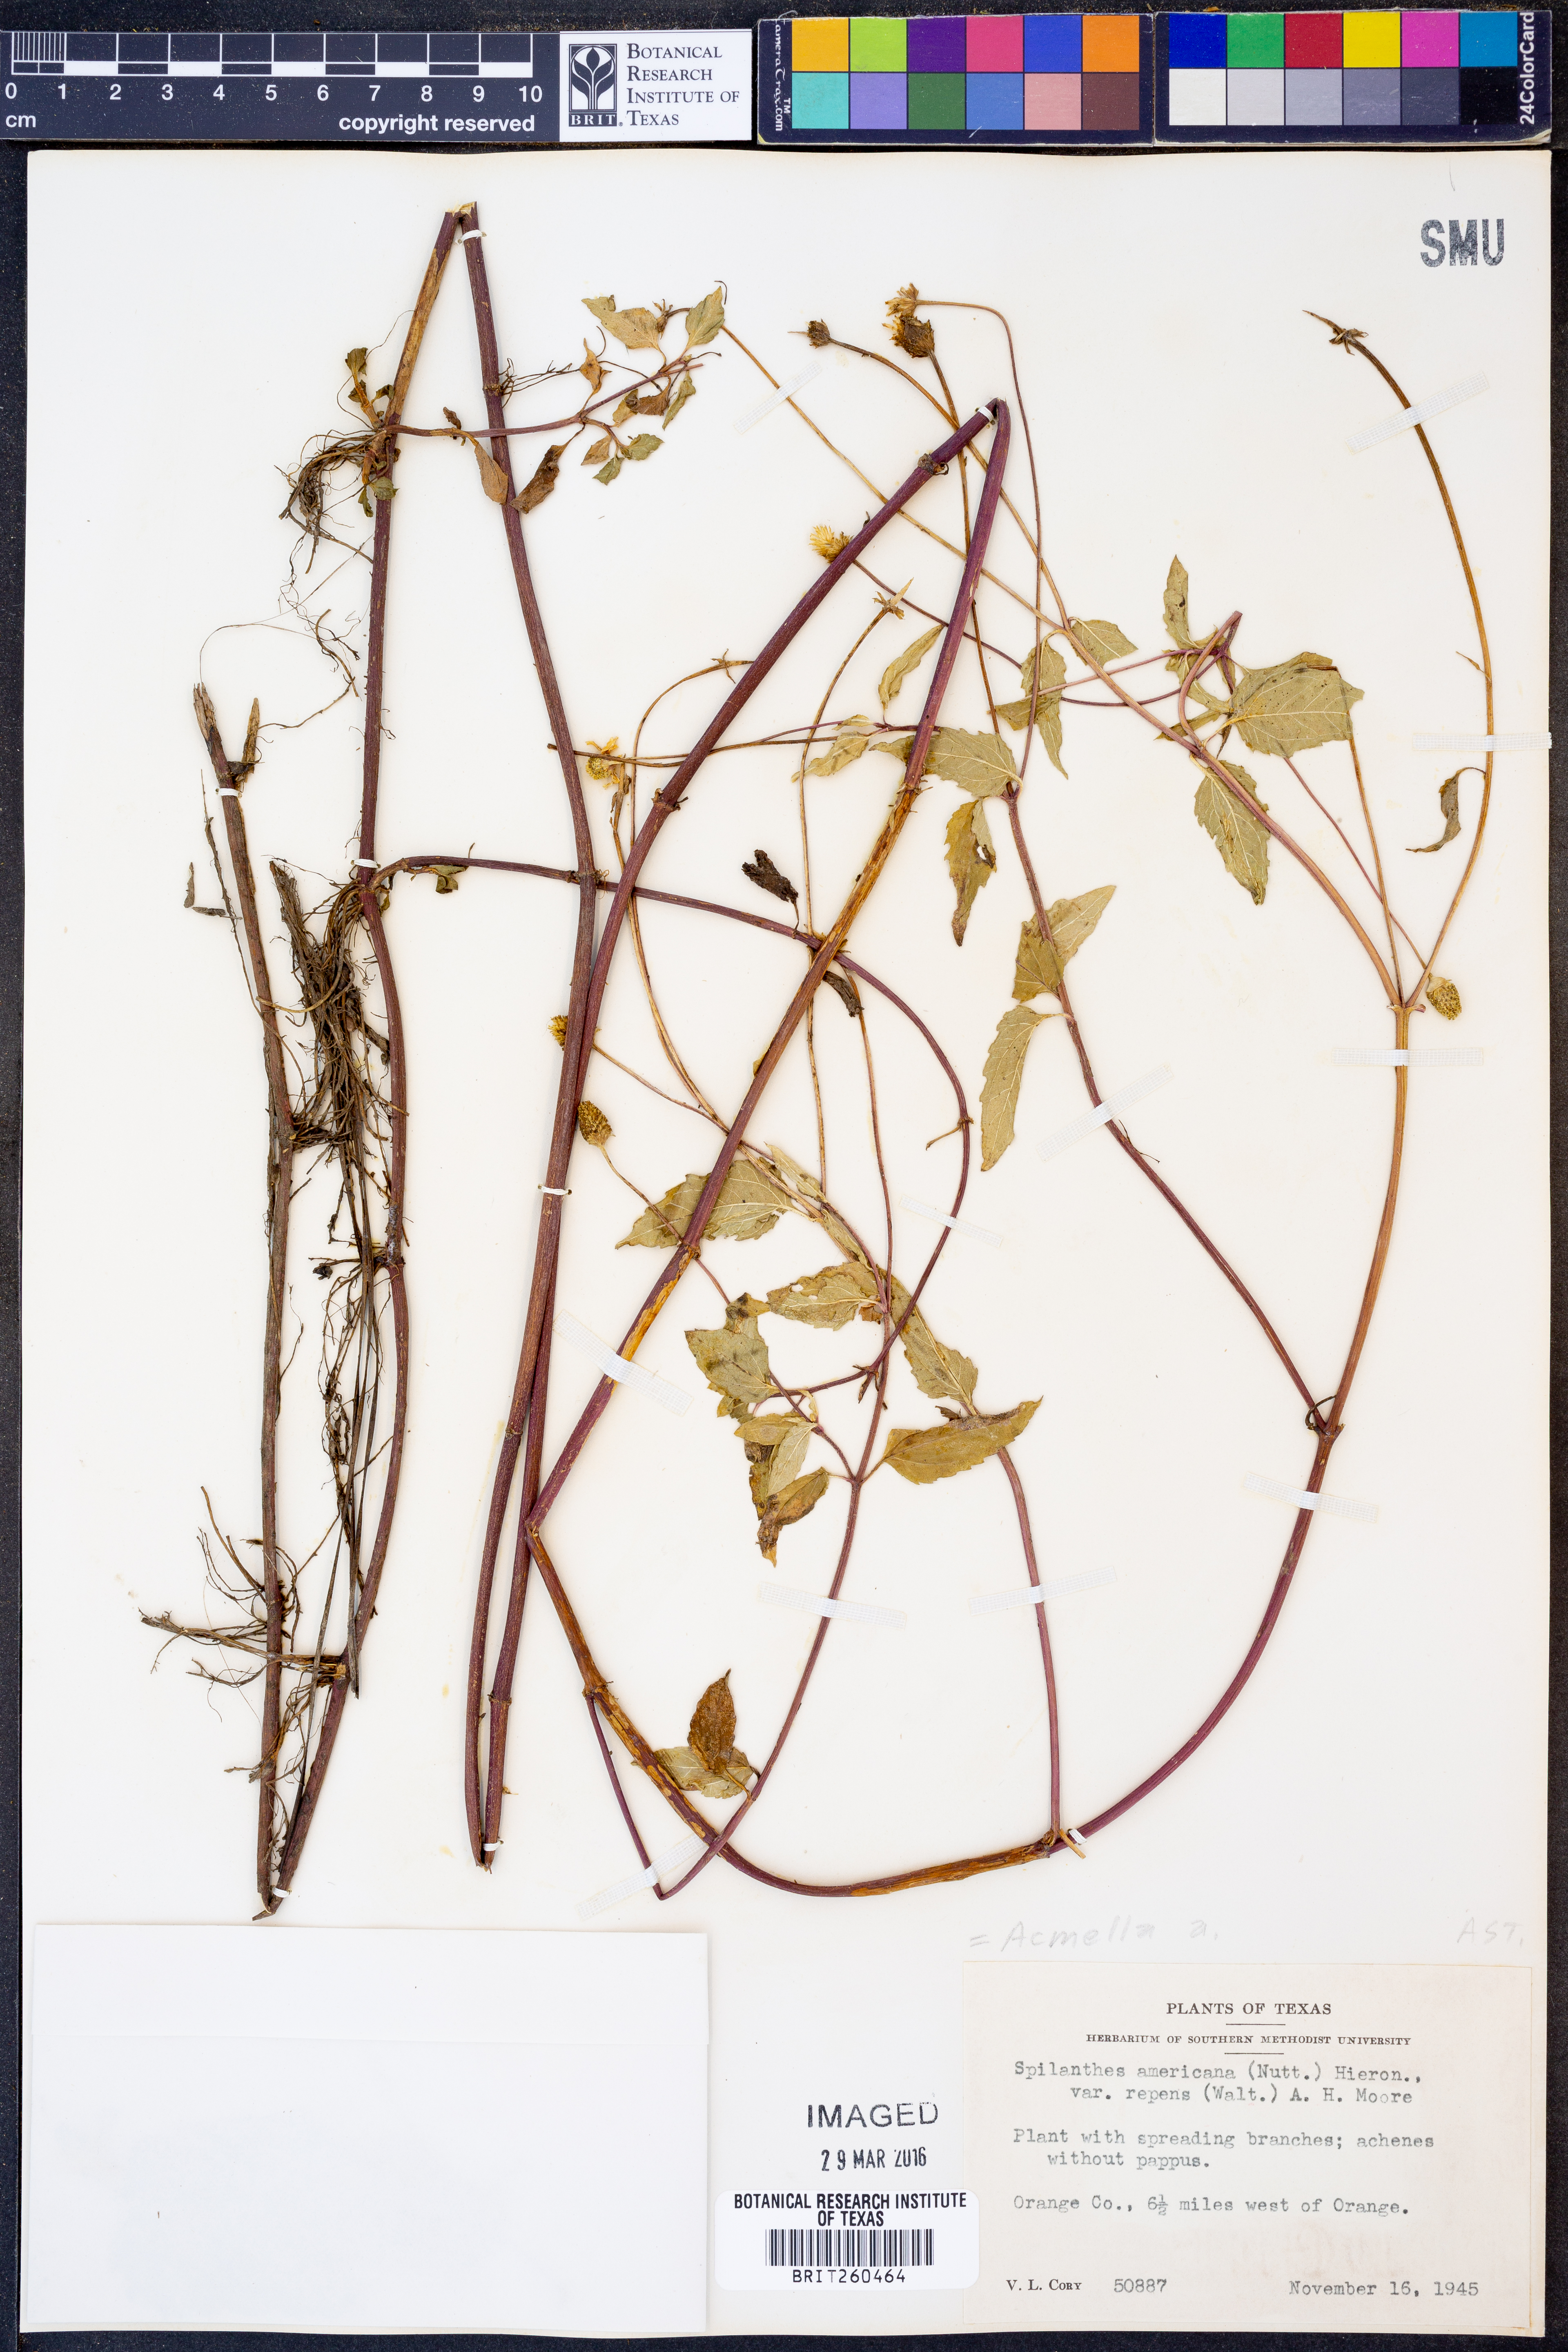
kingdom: Plantae
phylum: Tracheophyta
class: Magnoliopsida
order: Asterales
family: Asteraceae
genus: Acmella
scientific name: Acmella
